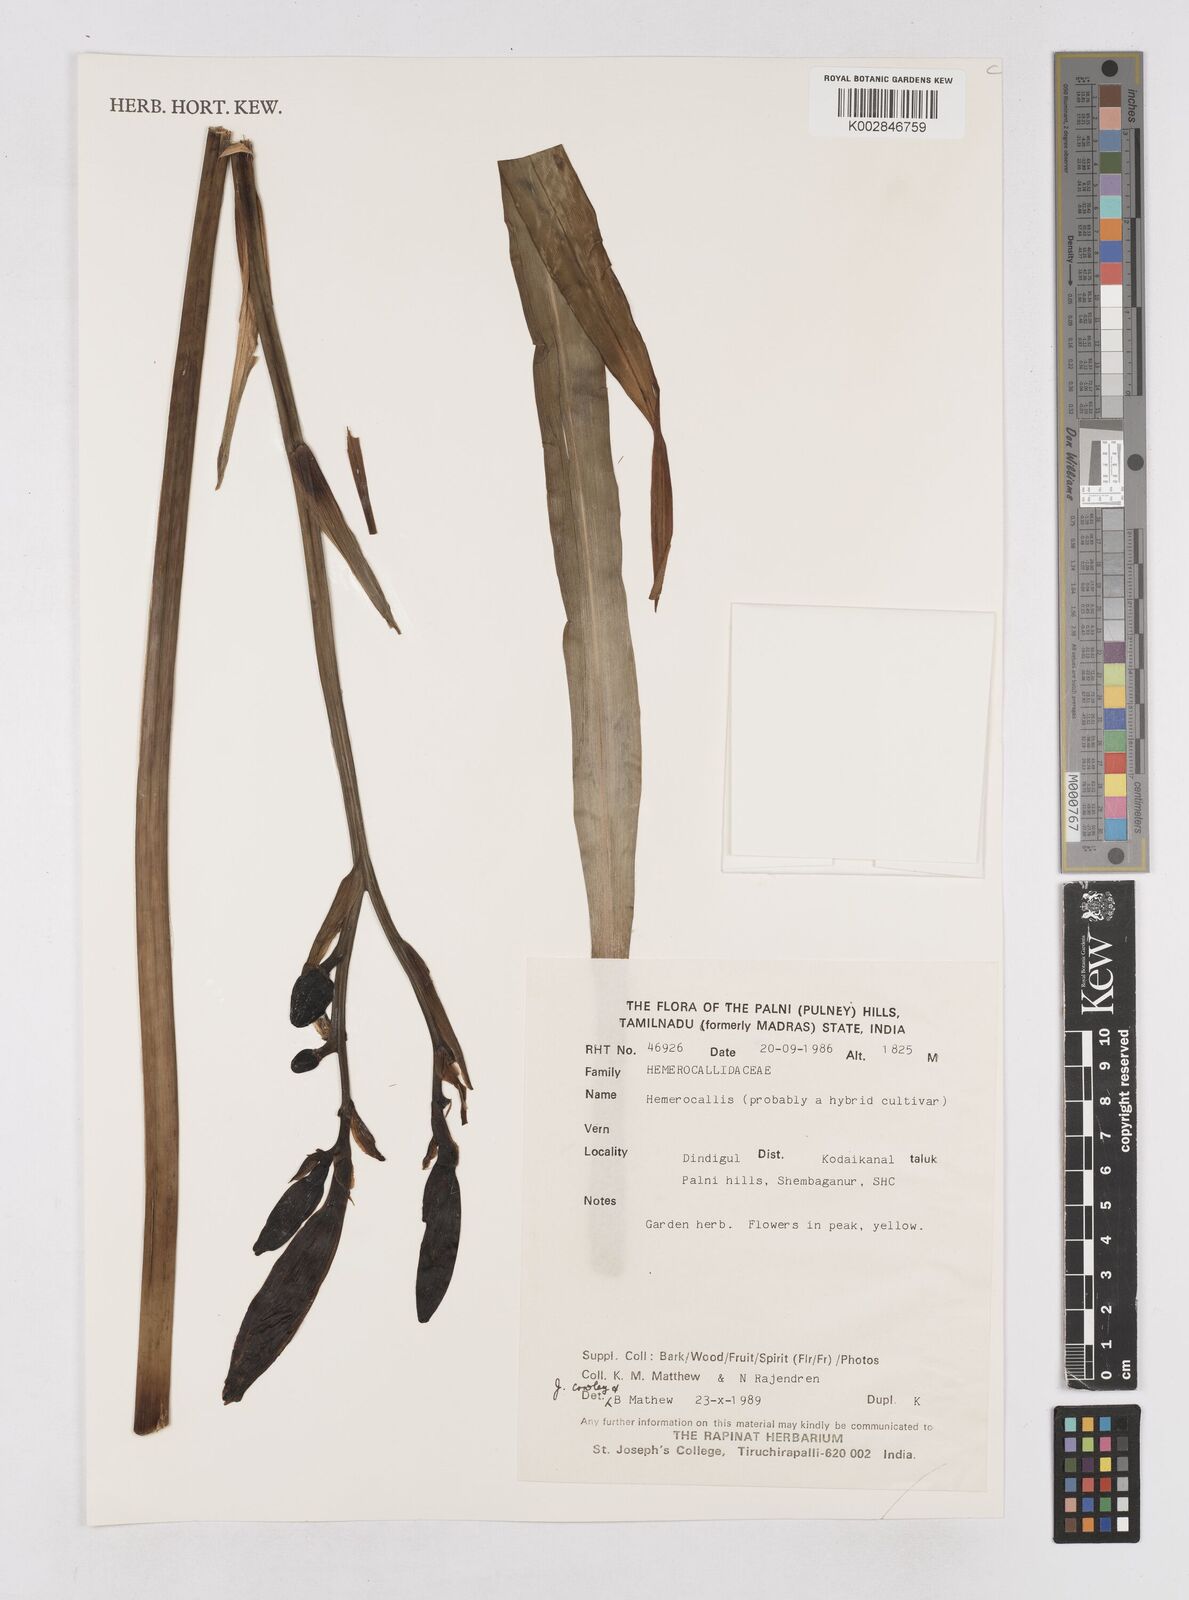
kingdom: Plantae
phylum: Tracheophyta
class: Liliopsida
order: Asparagales
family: Asphodelaceae
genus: Hemerocallis
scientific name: Hemerocallis
